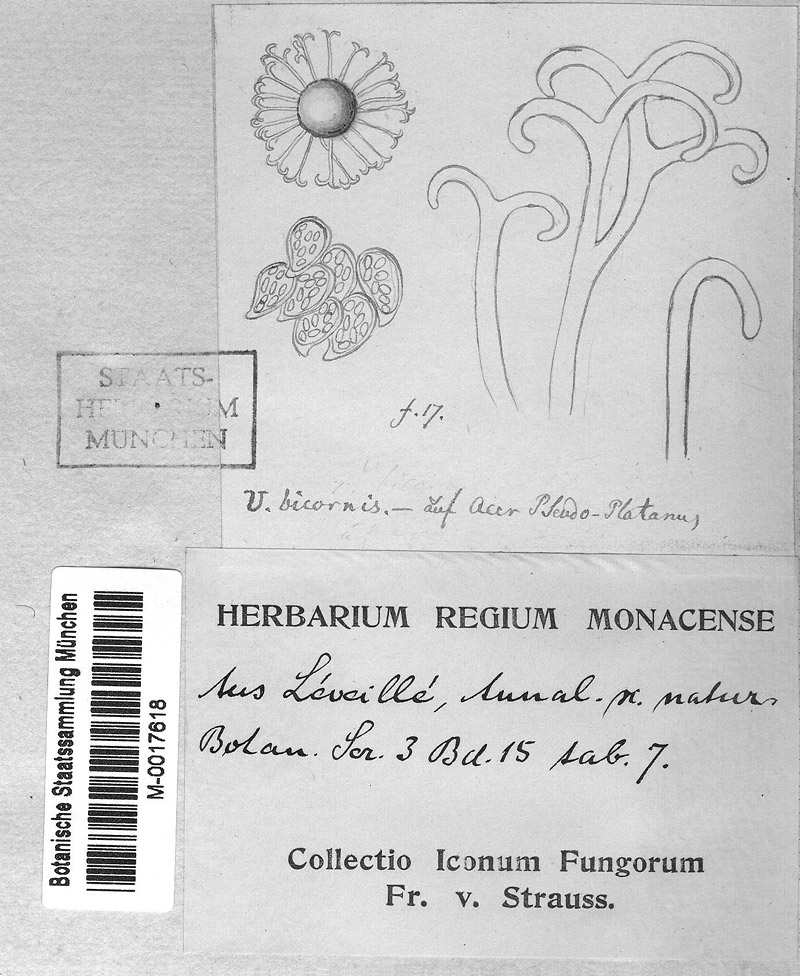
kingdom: Fungi
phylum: Ascomycota
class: Leotiomycetes
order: Helotiales
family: Erysiphaceae
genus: Sawadaea
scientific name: Sawadaea bicornis
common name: Maple mildew
